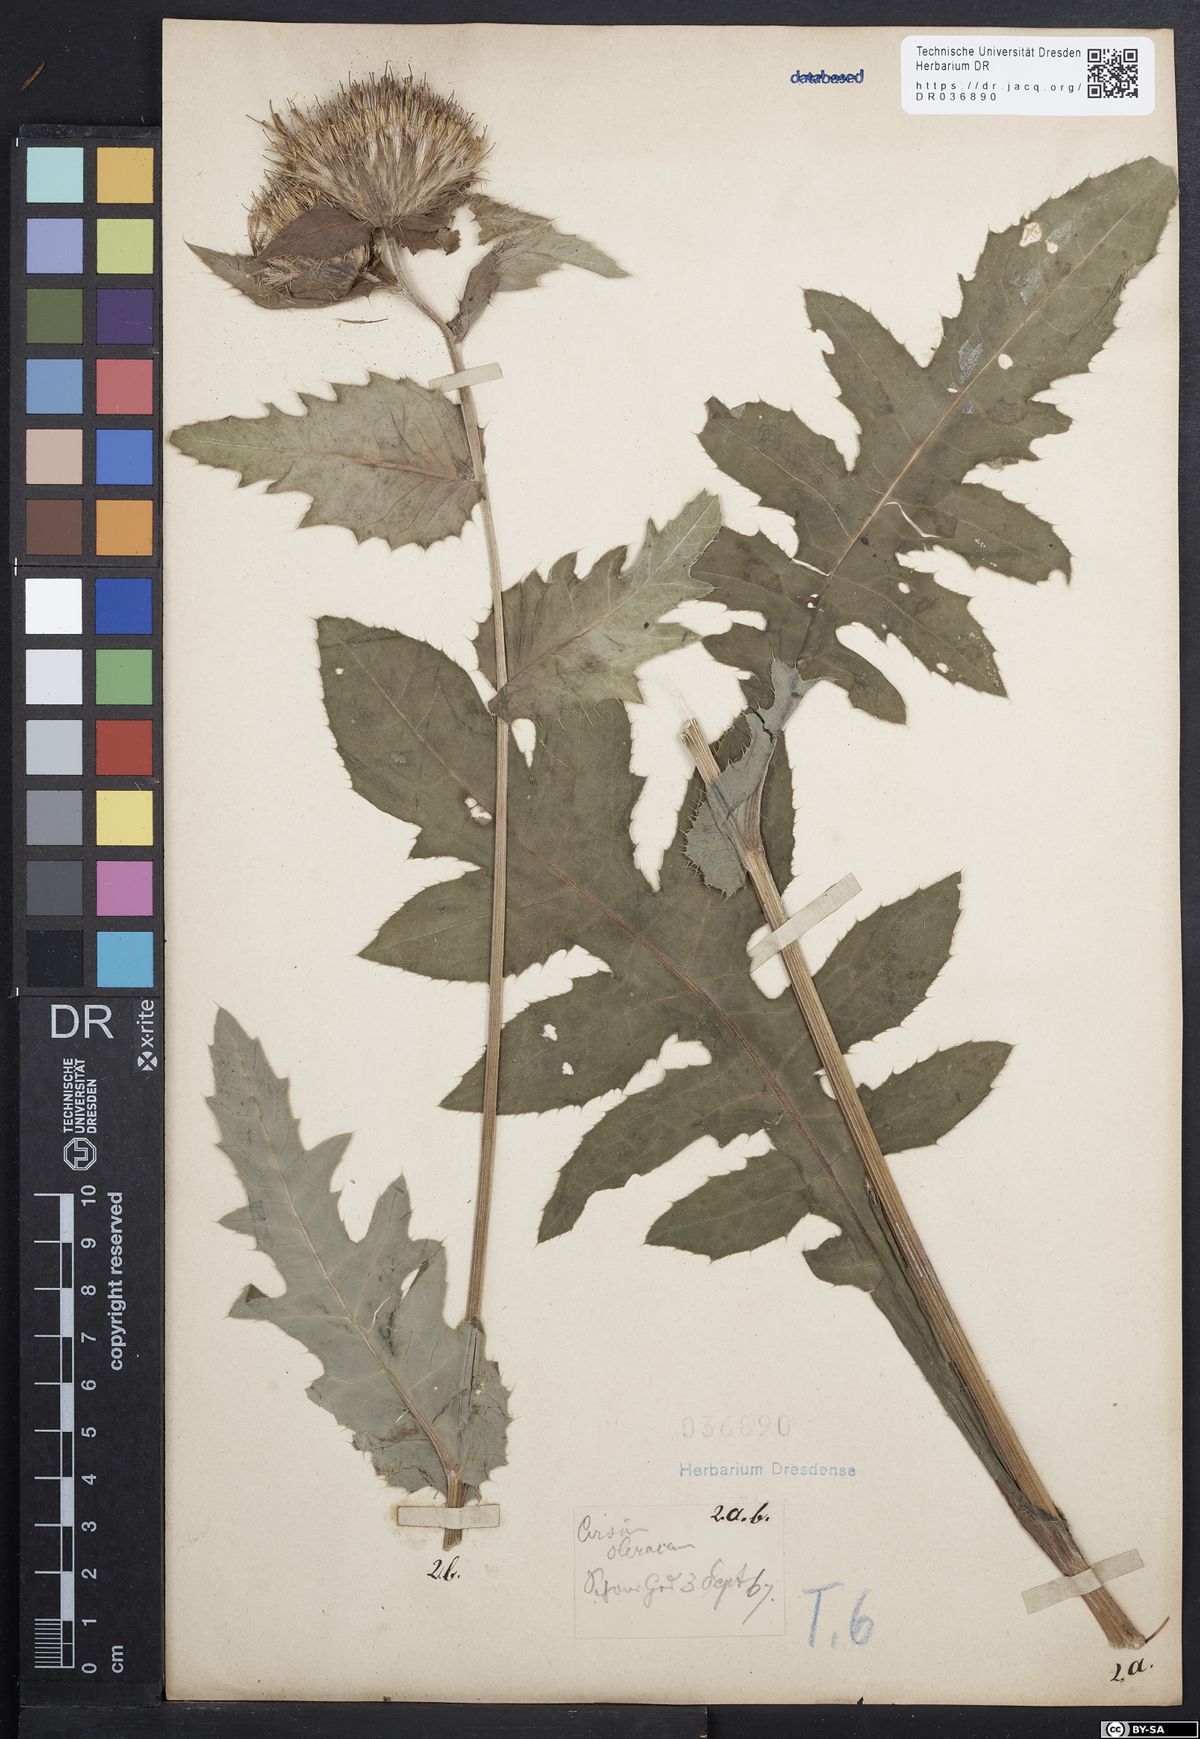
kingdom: Plantae
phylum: Tracheophyta
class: Magnoliopsida
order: Asterales
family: Asteraceae
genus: Cirsium
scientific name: Cirsium oleraceum
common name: Cabbage thistle
